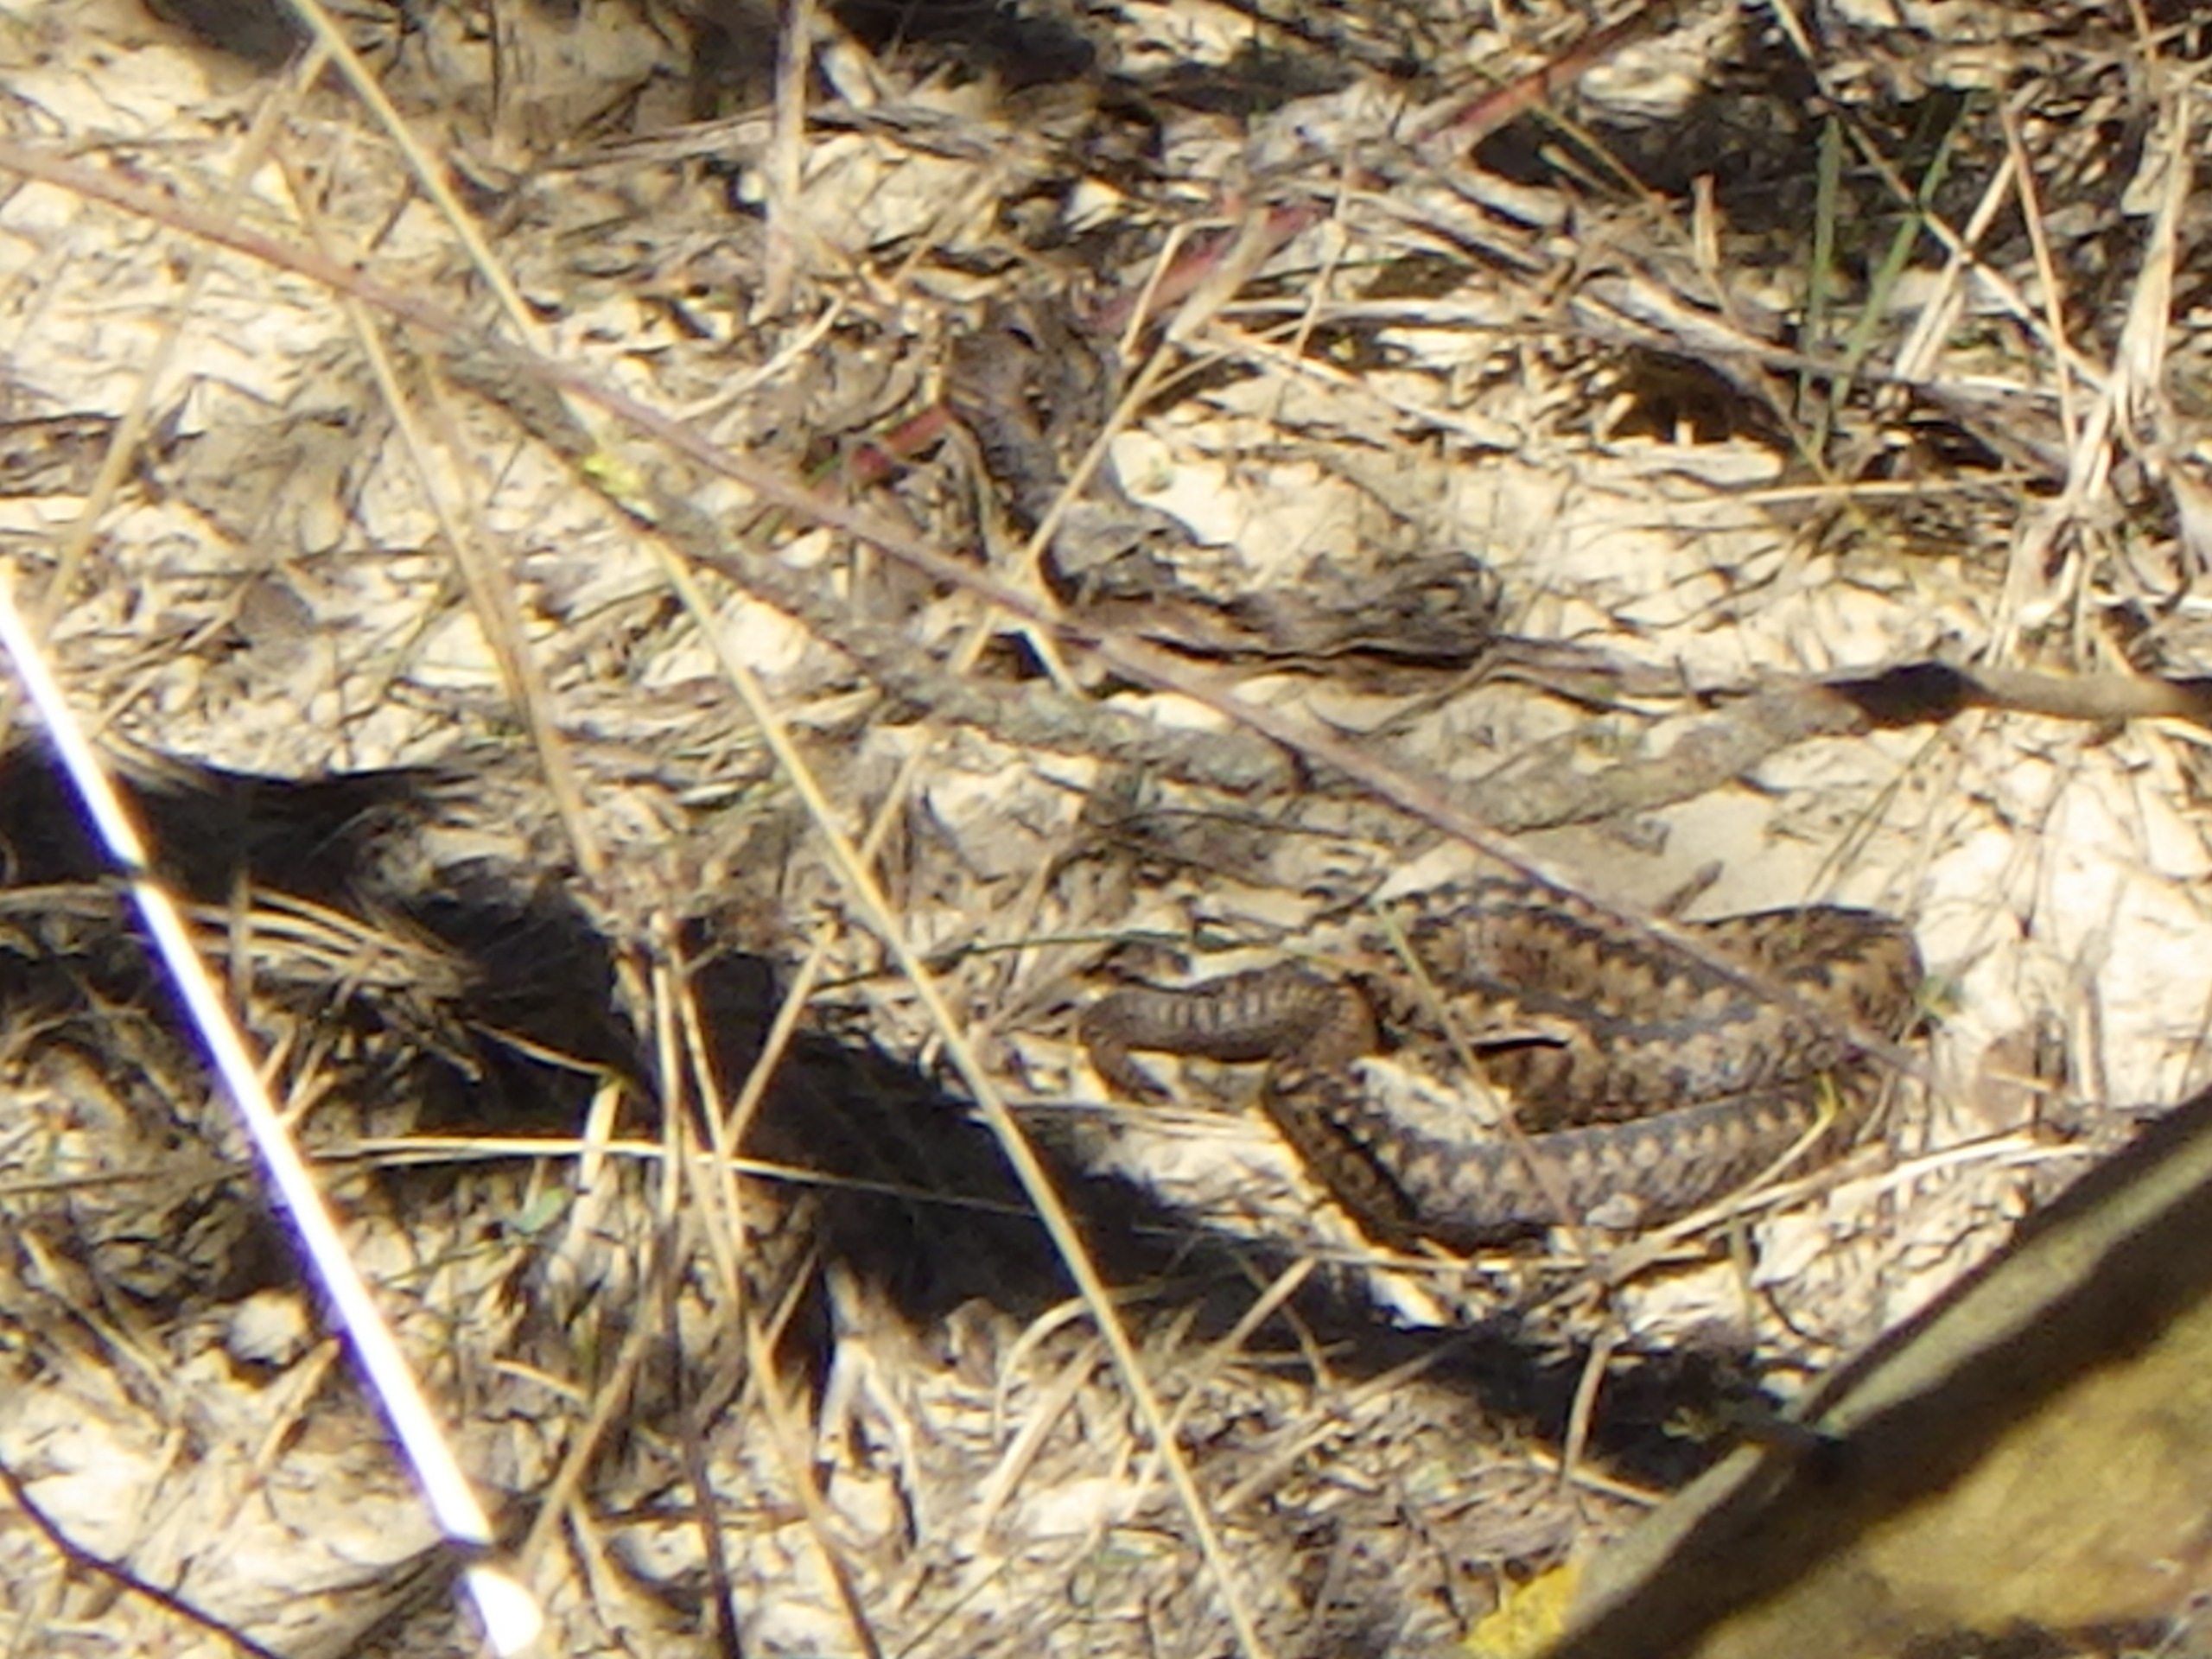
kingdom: Animalia
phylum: Chordata
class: Squamata
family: Viperidae
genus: Vipera
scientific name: Vipera berus
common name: Hugorm
